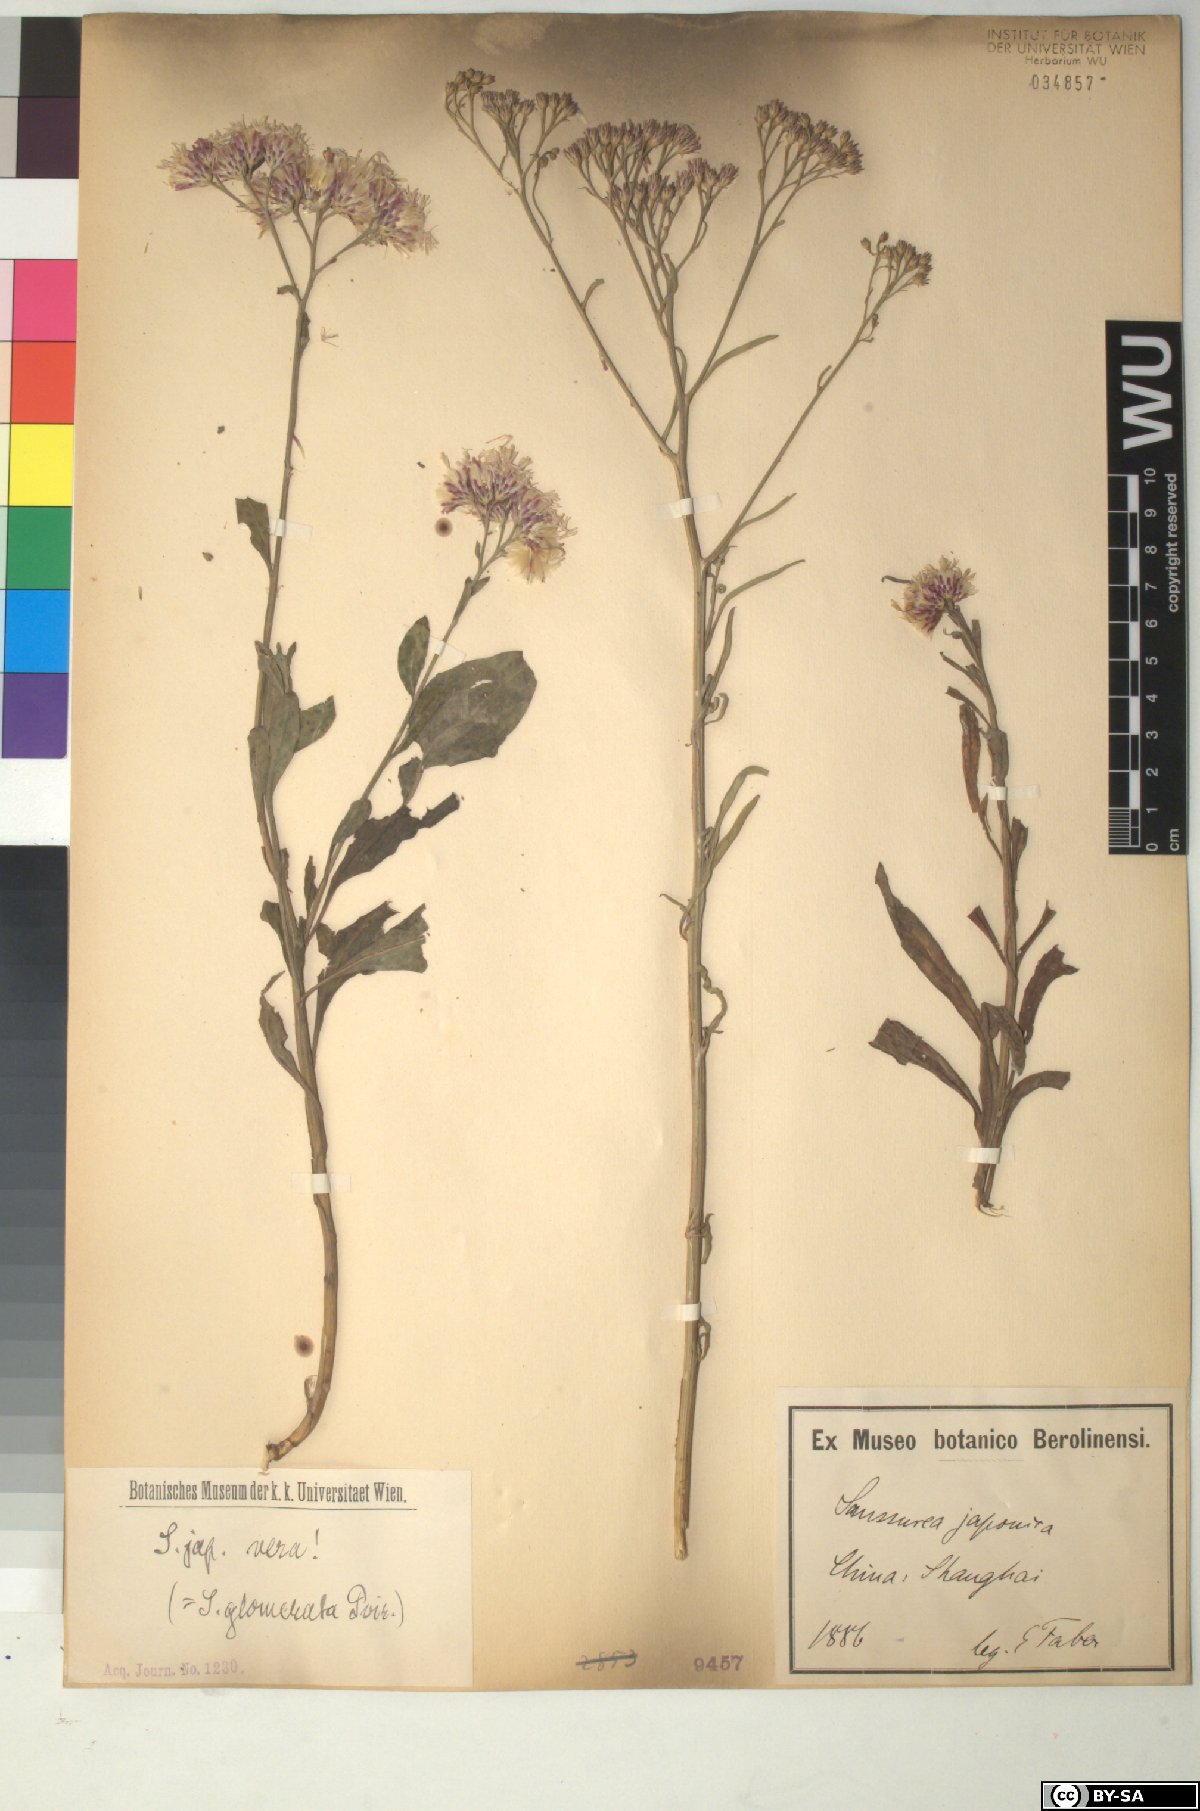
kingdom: Plantae
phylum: Tracheophyta
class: Magnoliopsida
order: Asterales
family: Asteraceae
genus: Saussurea
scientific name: Saussurea japonica
